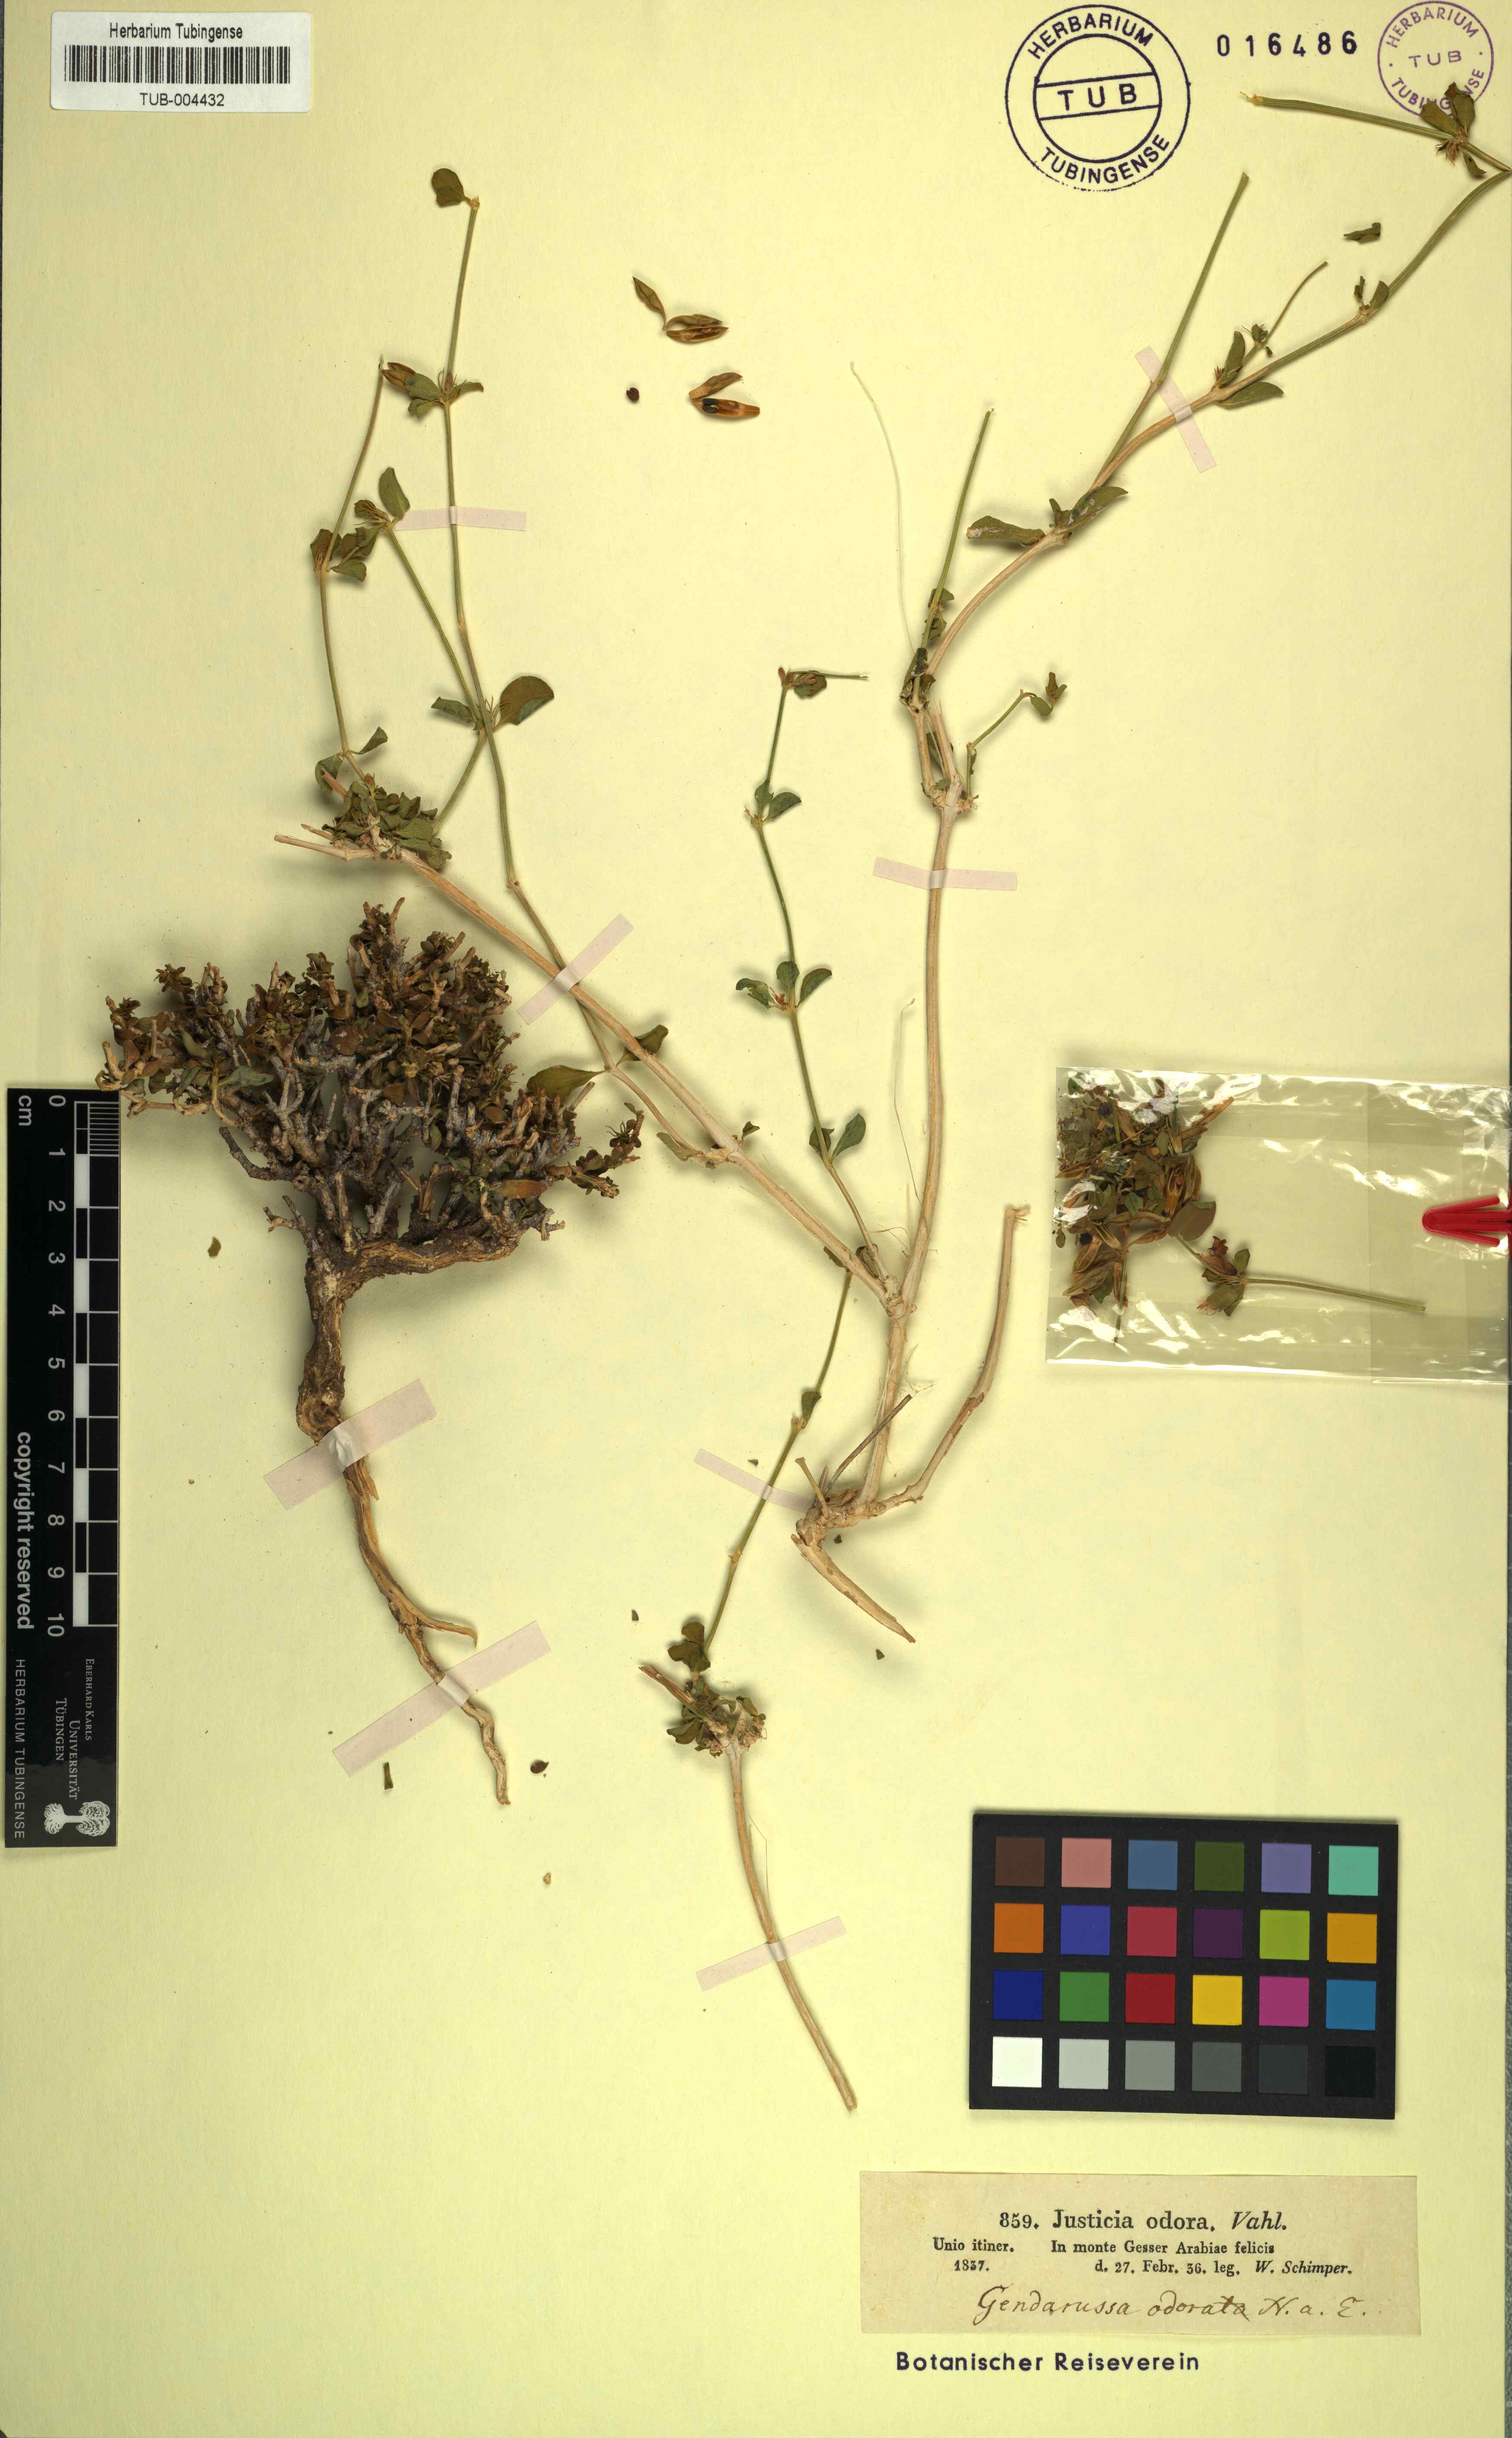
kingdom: Plantae
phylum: Tracheophyta
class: Magnoliopsida
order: Lamiales
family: Acanthaceae
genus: Justicia
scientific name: Justicia odora
